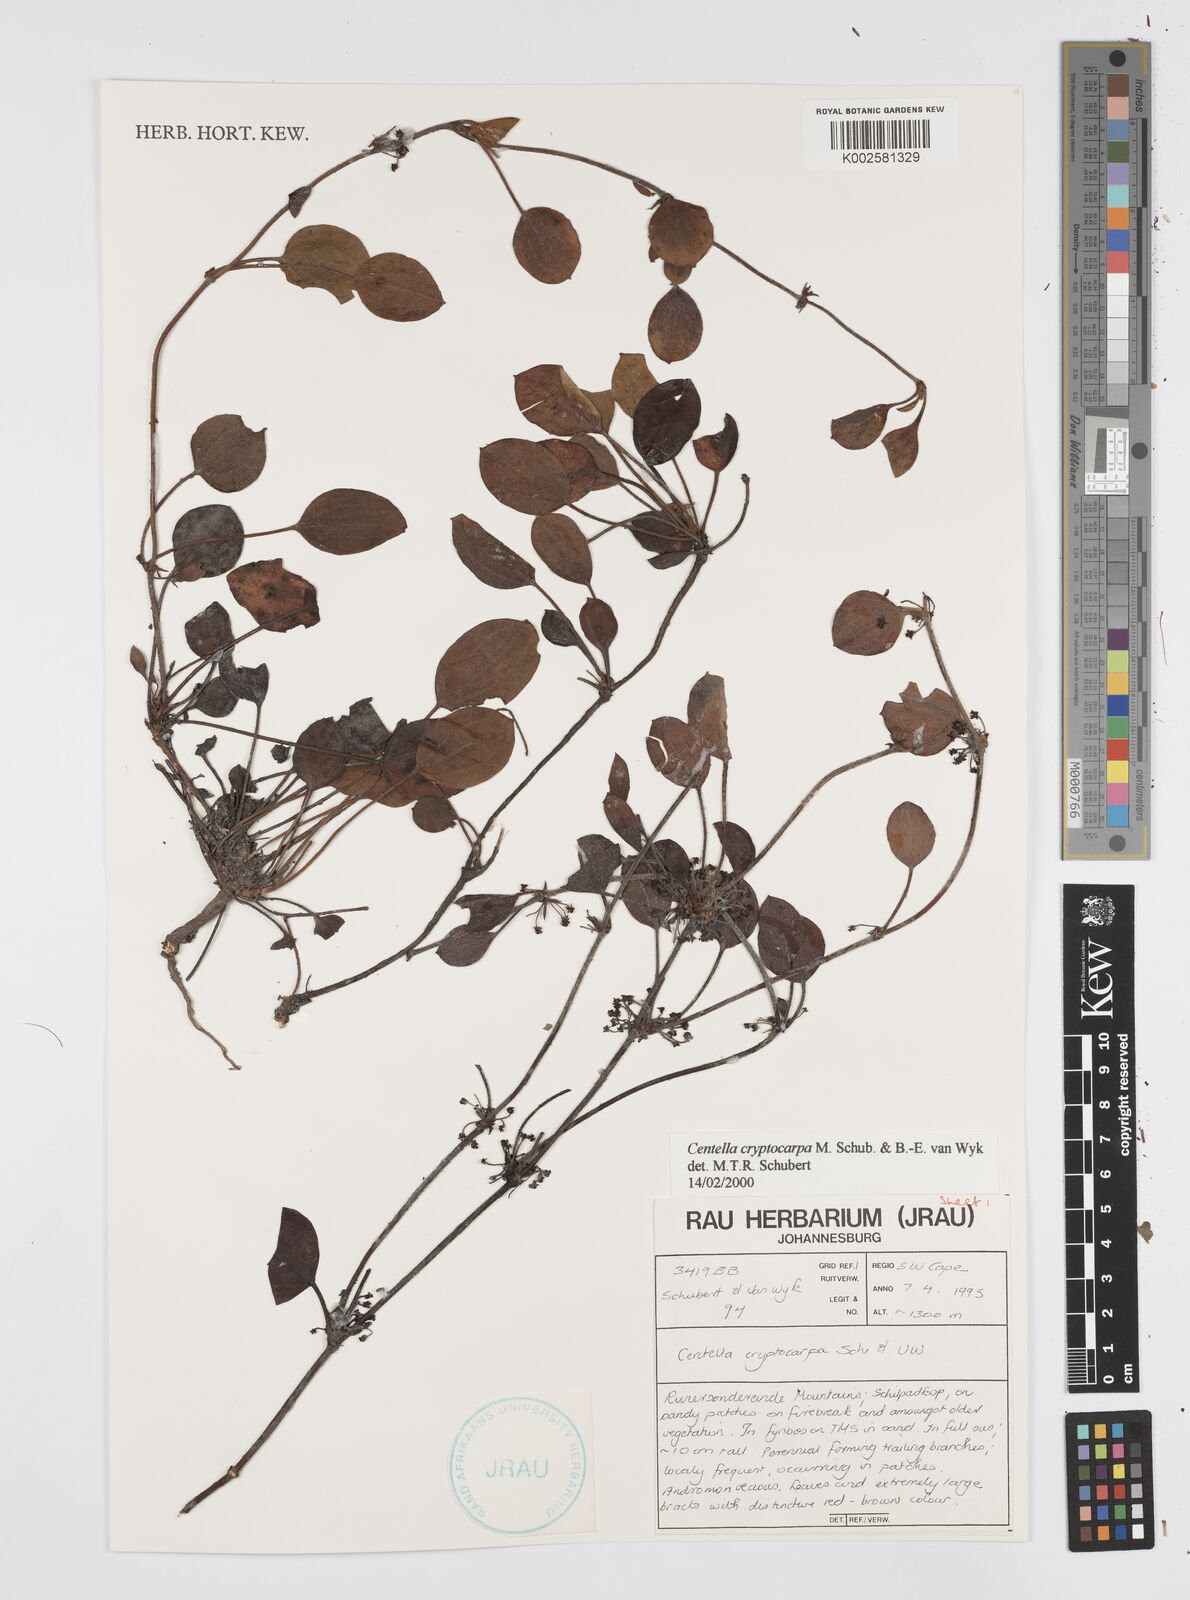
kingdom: Plantae
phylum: Tracheophyta
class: Magnoliopsida
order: Apiales
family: Apiaceae
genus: Centella
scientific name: Centella cryptocarpa
